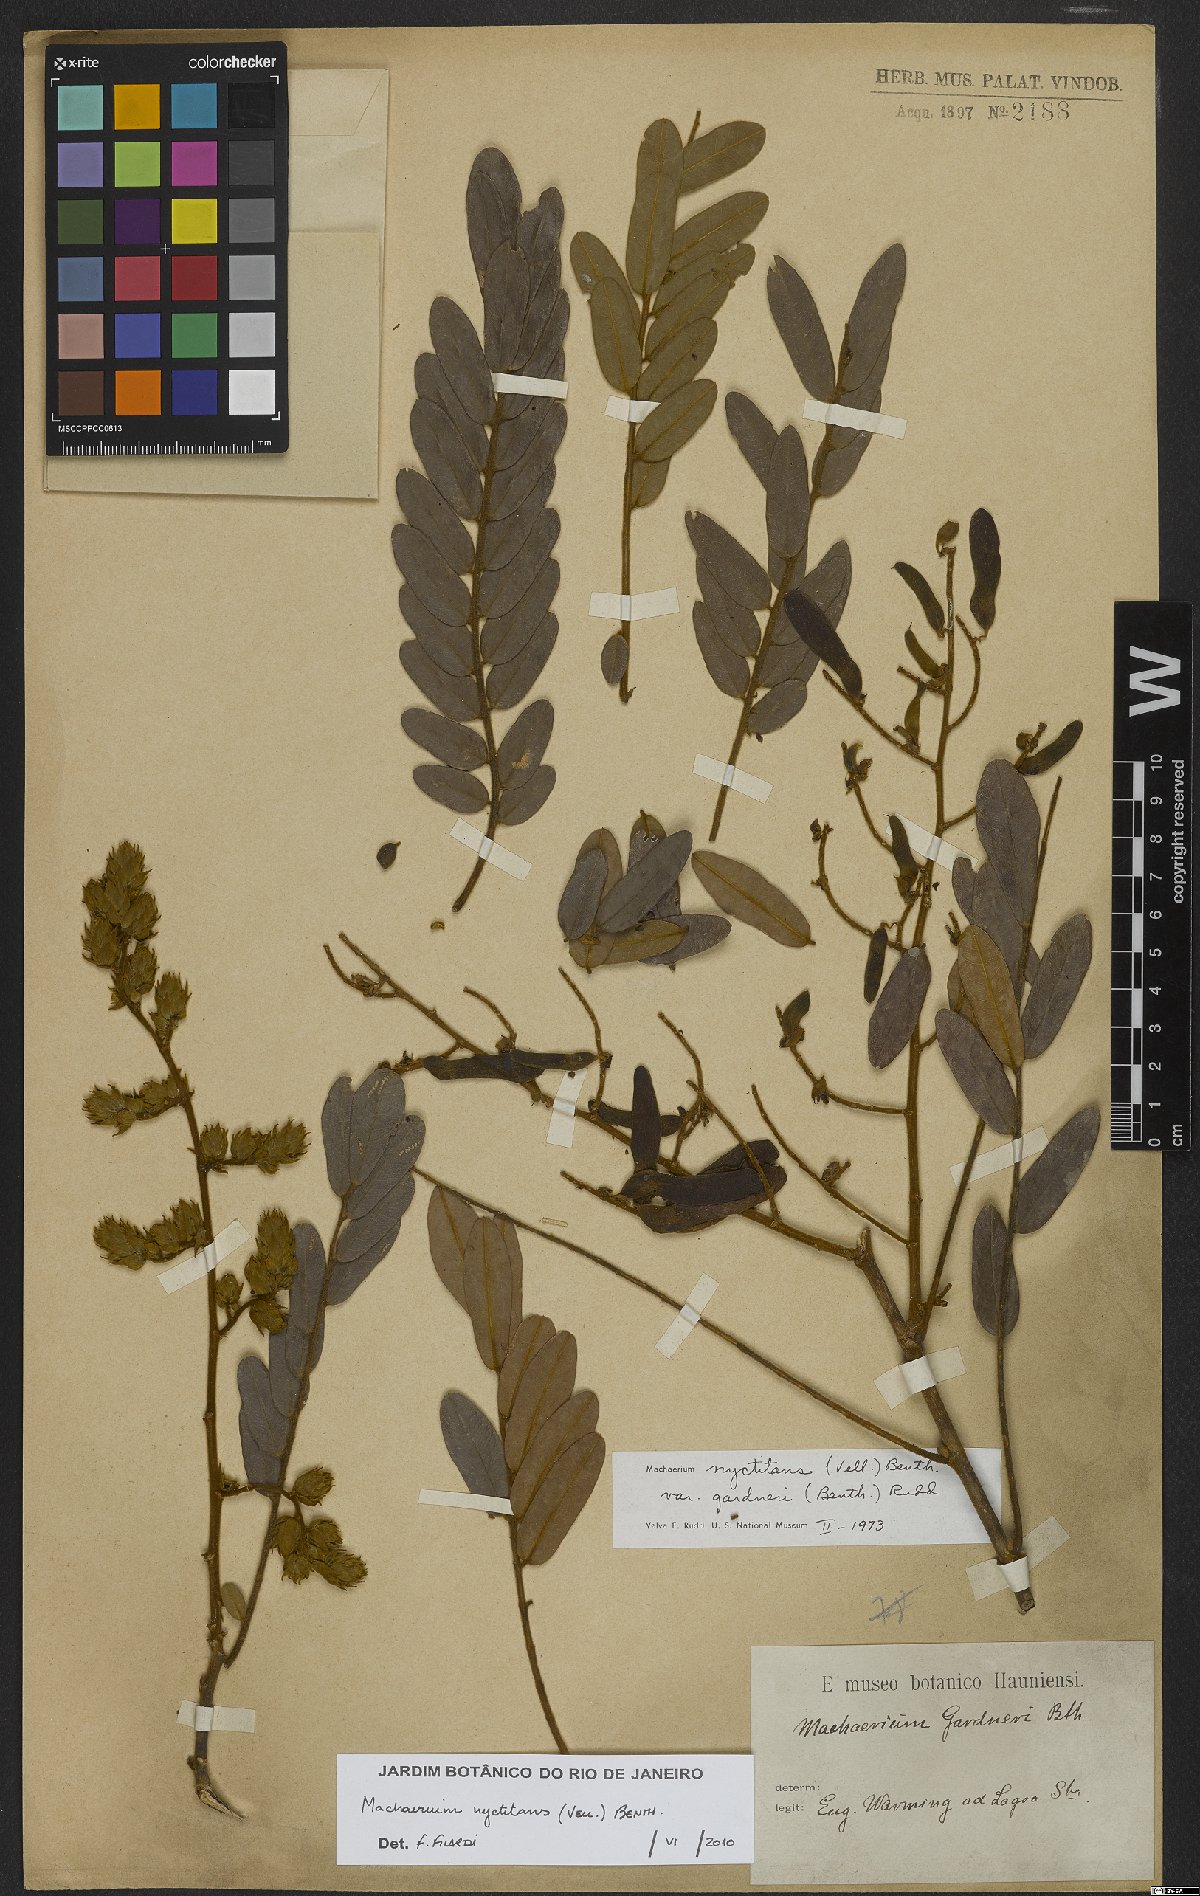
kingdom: Plantae
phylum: Tracheophyta
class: Magnoliopsida
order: Fabales
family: Fabaceae
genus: Machaerium
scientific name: Machaerium nyctitans
